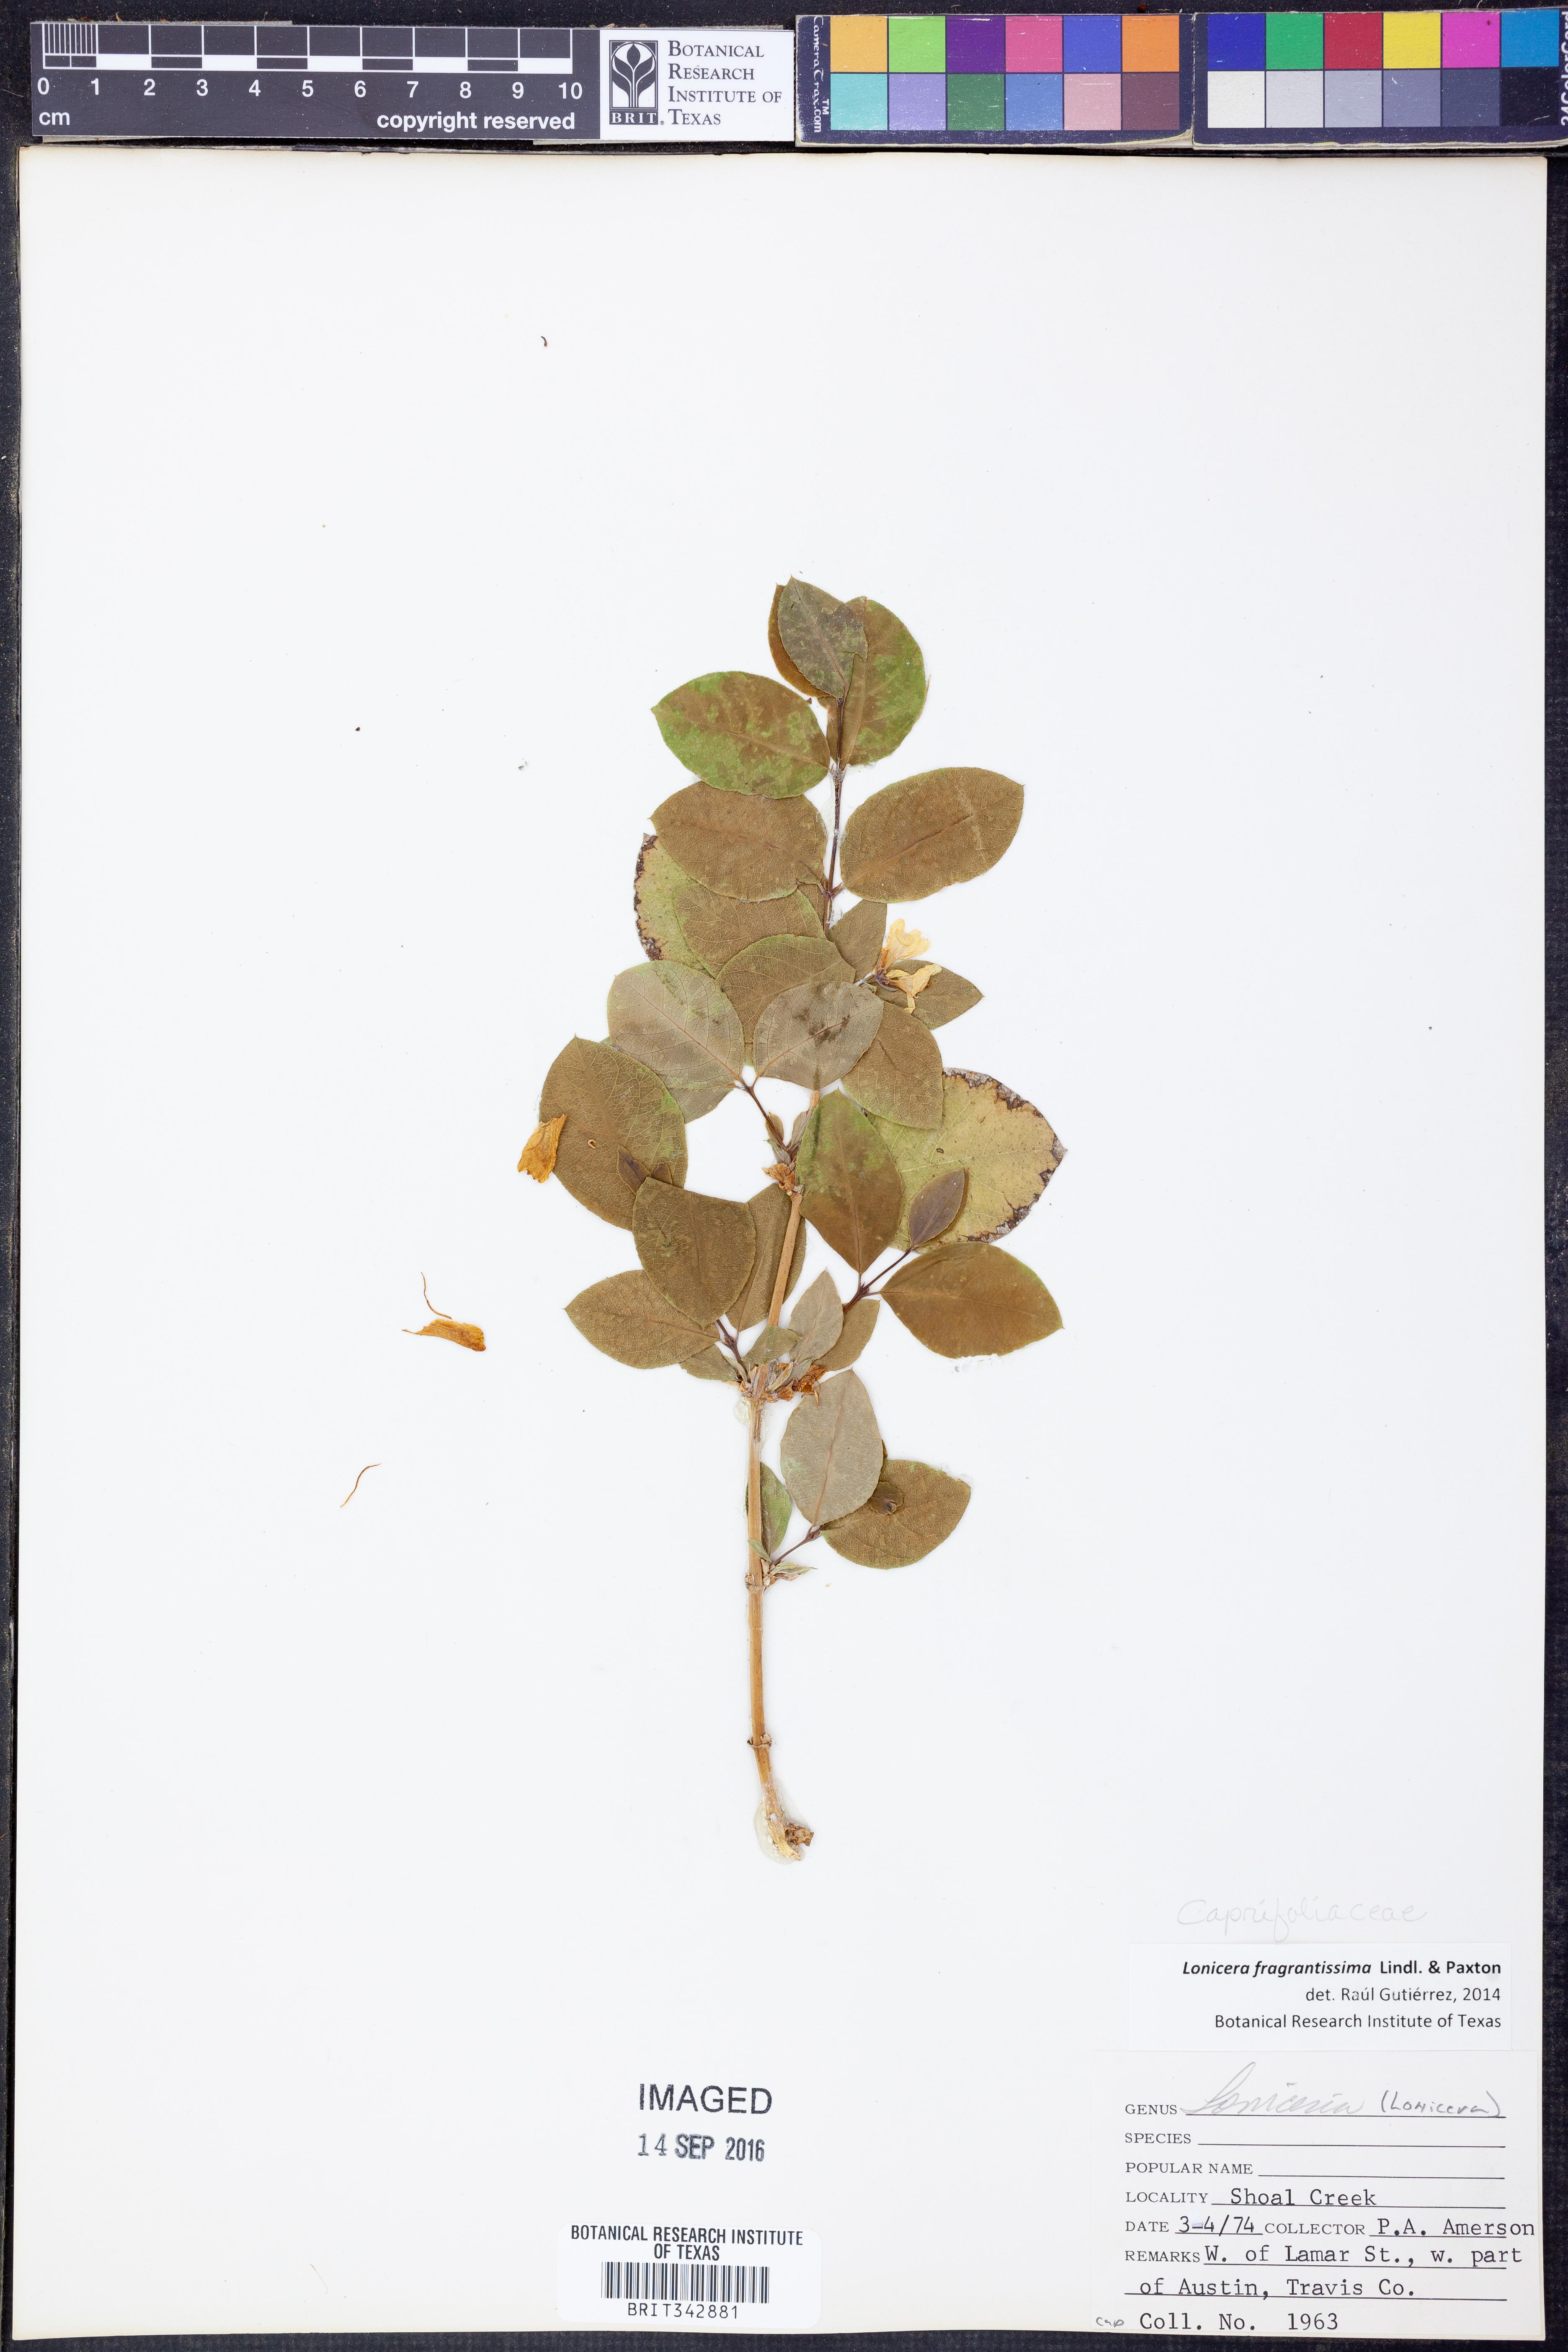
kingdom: Plantae
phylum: Tracheophyta
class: Magnoliopsida
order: Dipsacales
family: Caprifoliaceae
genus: Lonicera
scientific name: Lonicera fragrantissima
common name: Fragrant honeysuckle
